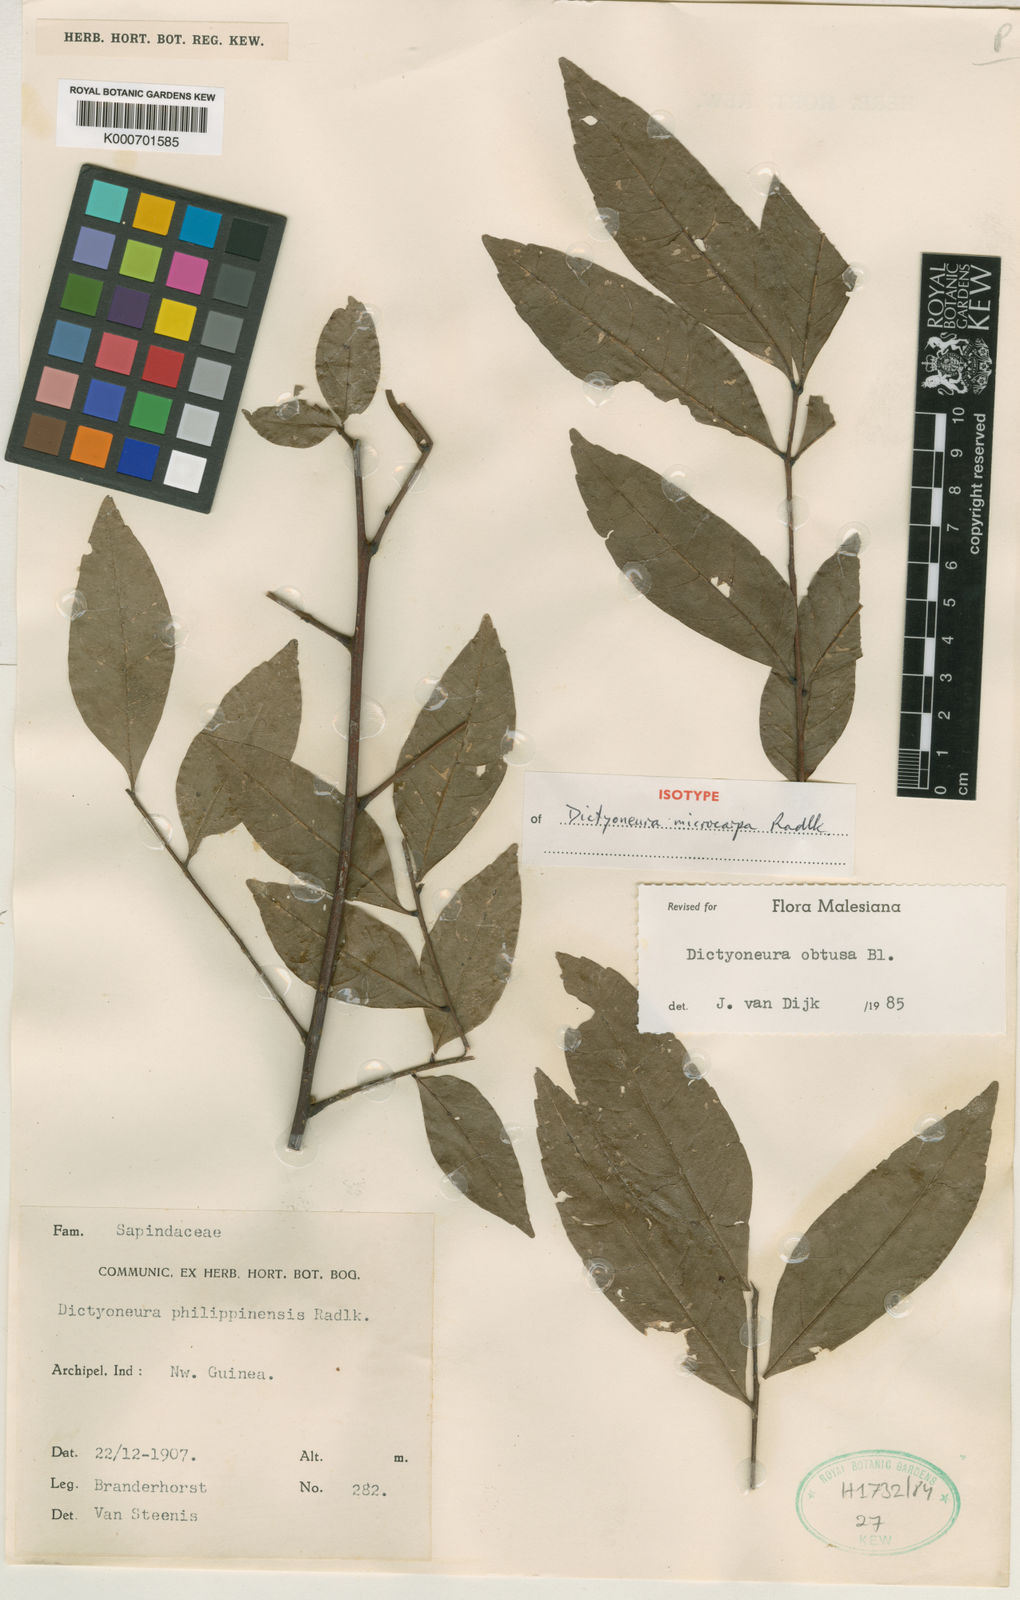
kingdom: Plantae
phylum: Tracheophyta
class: Magnoliopsida
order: Sapindales
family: Sapindaceae
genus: Dictyoneura
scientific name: Dictyoneura acuminata
